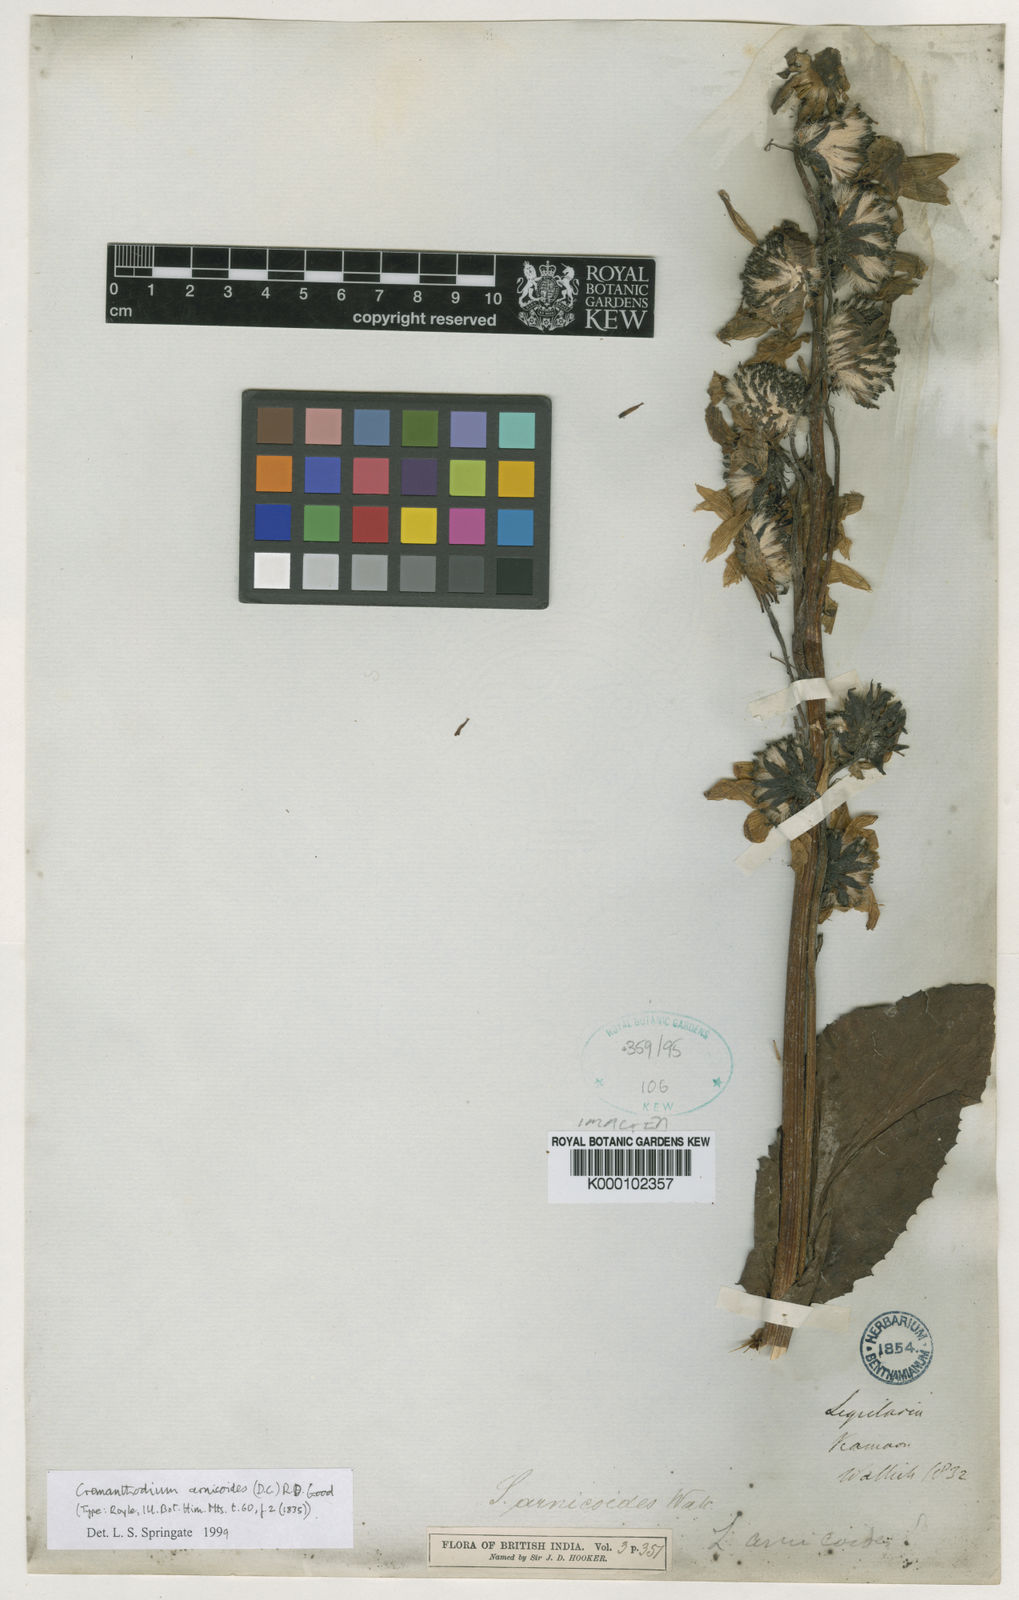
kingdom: Plantae
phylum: Tracheophyta
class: Magnoliopsida
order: Asterales
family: Asteraceae
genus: Cremanthodium
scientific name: Cremanthodium arnicoides
